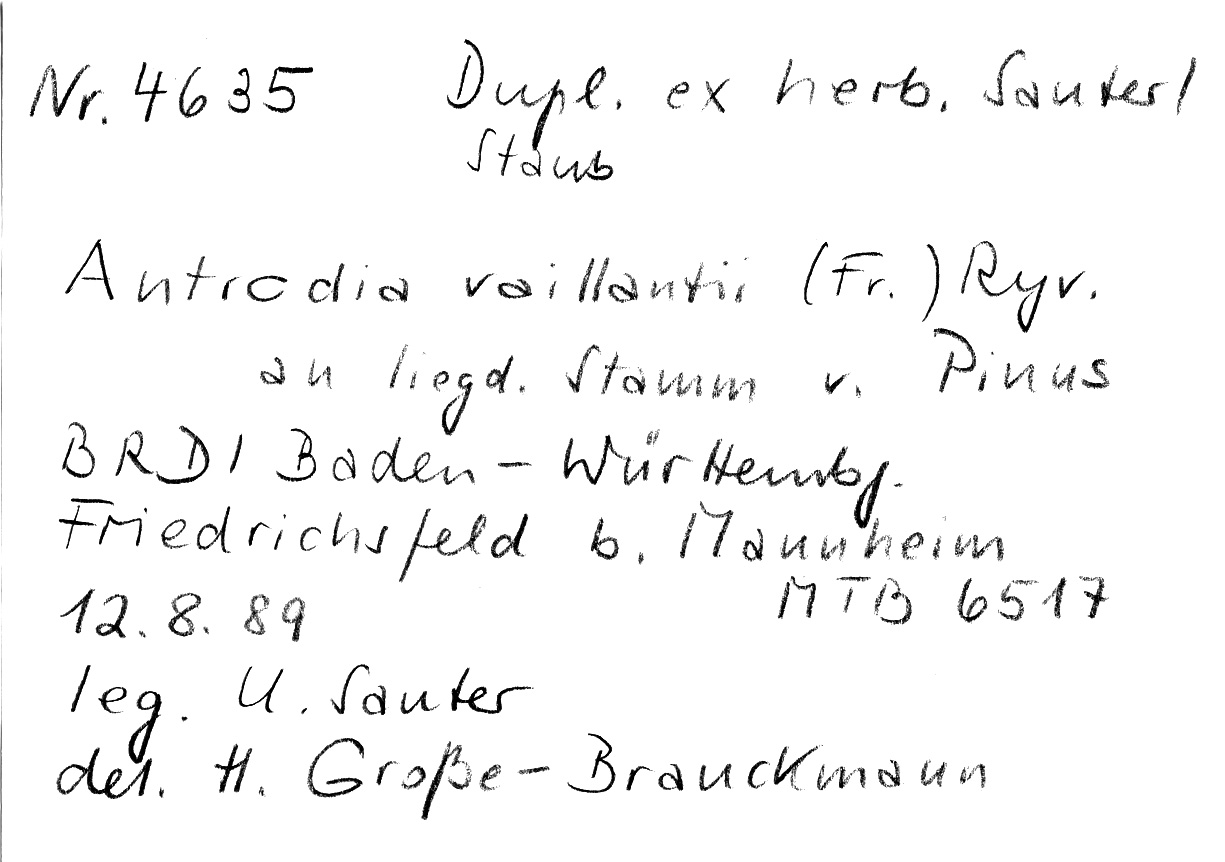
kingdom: Fungi
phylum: Basidiomycota
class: Agaricomycetes
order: Polyporales
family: Fibroporiaceae
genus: Fibroporia
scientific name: Fibroporia vaillantii
